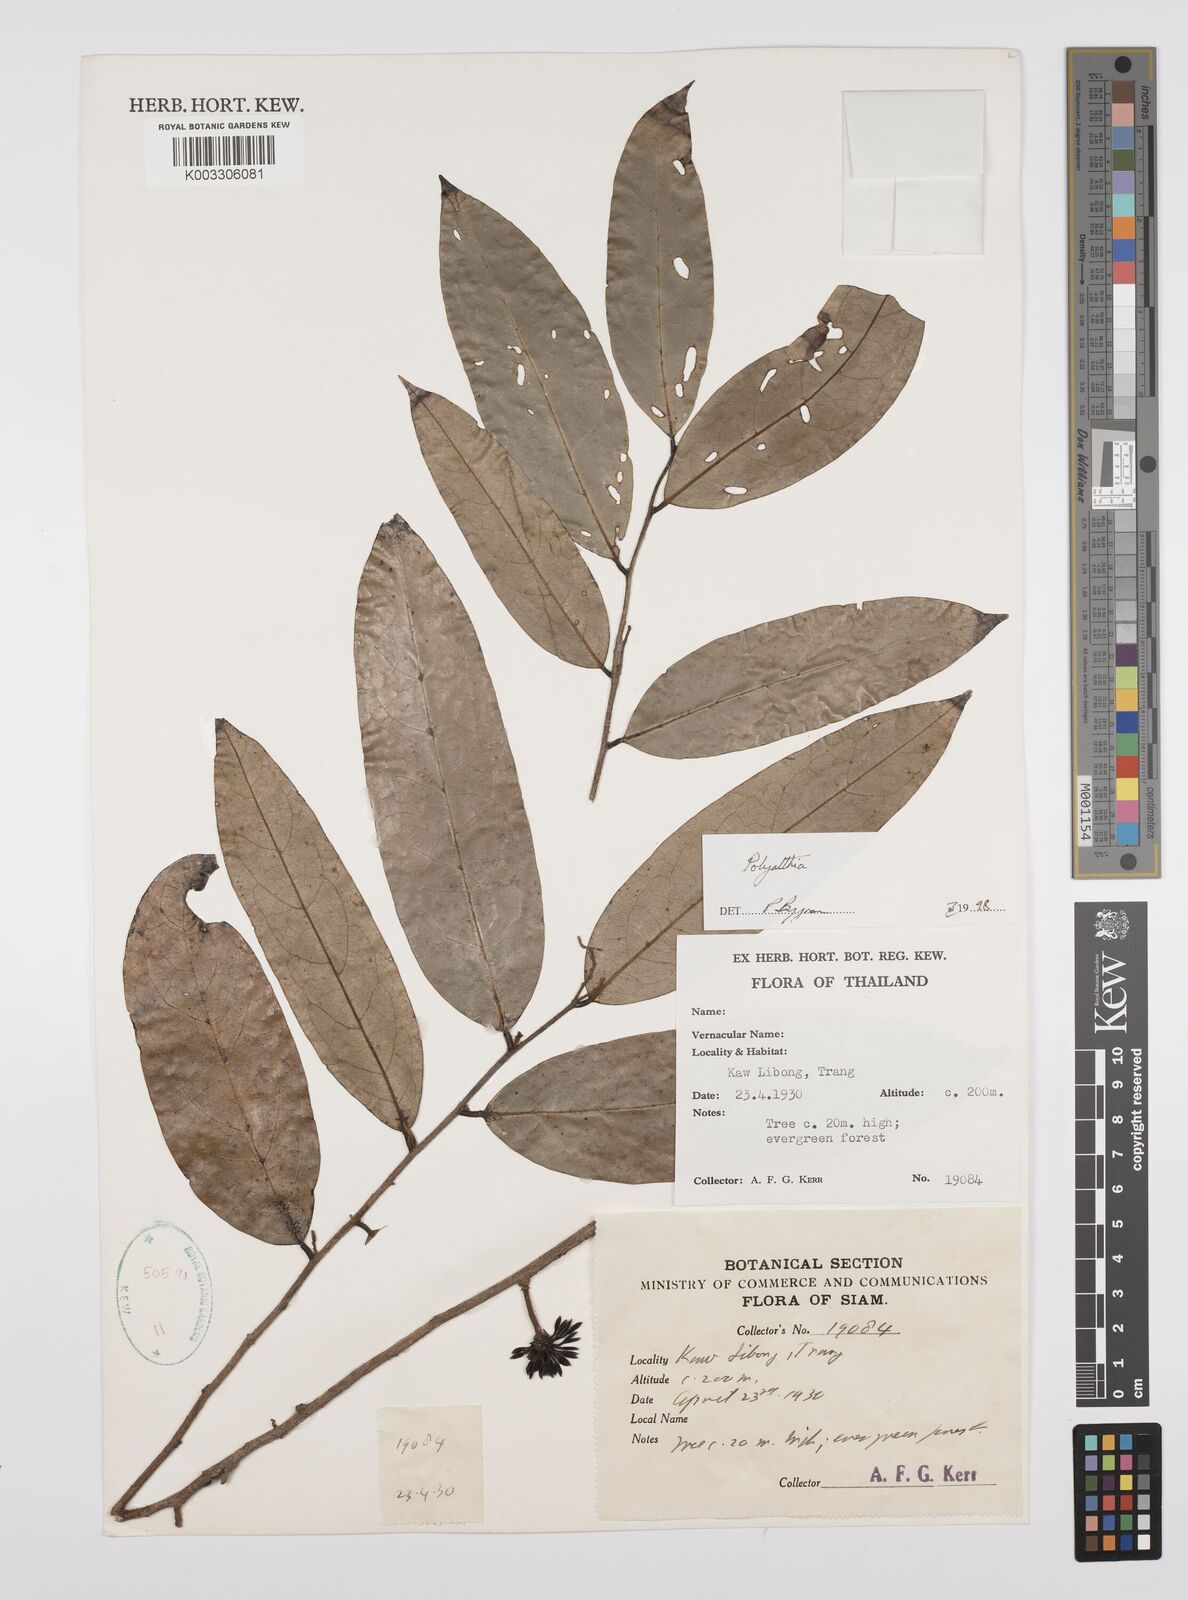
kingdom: Plantae
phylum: Tracheophyta
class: Magnoliopsida
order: Magnoliales
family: Annonaceae
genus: Huberantha
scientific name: Huberantha
